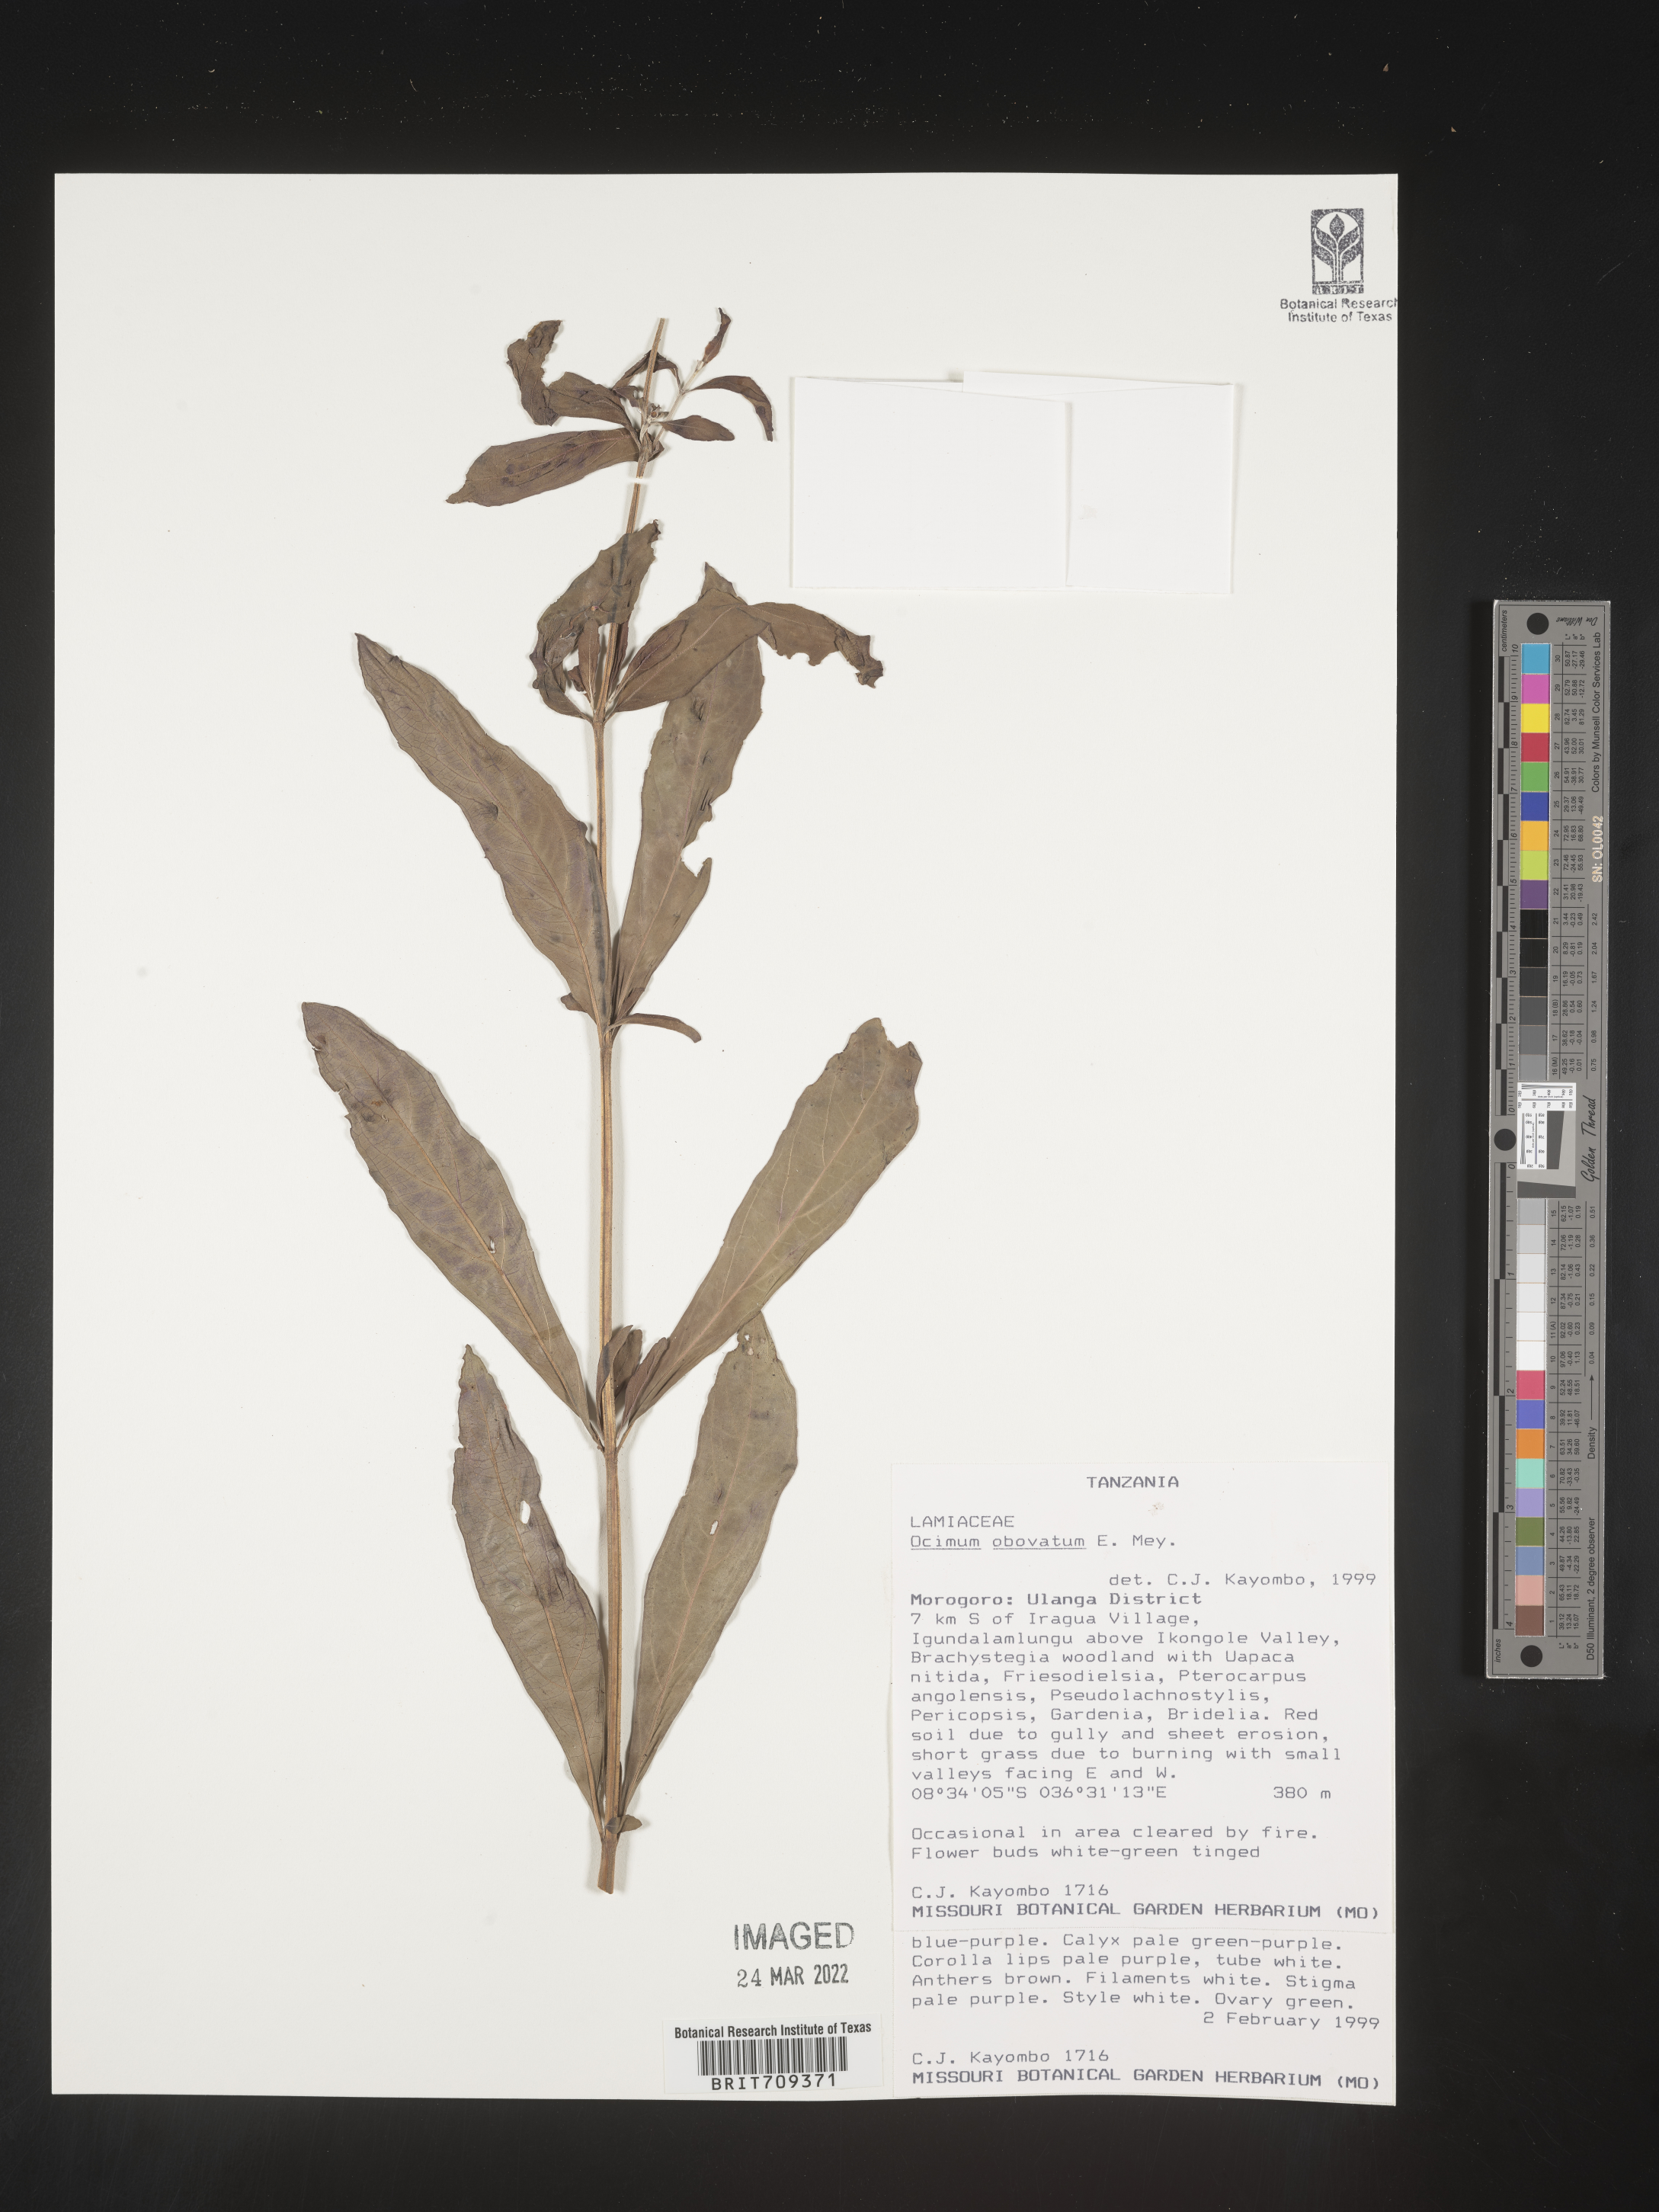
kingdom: Plantae
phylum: Tracheophyta
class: Magnoliopsida
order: Lamiales
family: Lamiaceae
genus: Ocimum
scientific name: Ocimum
